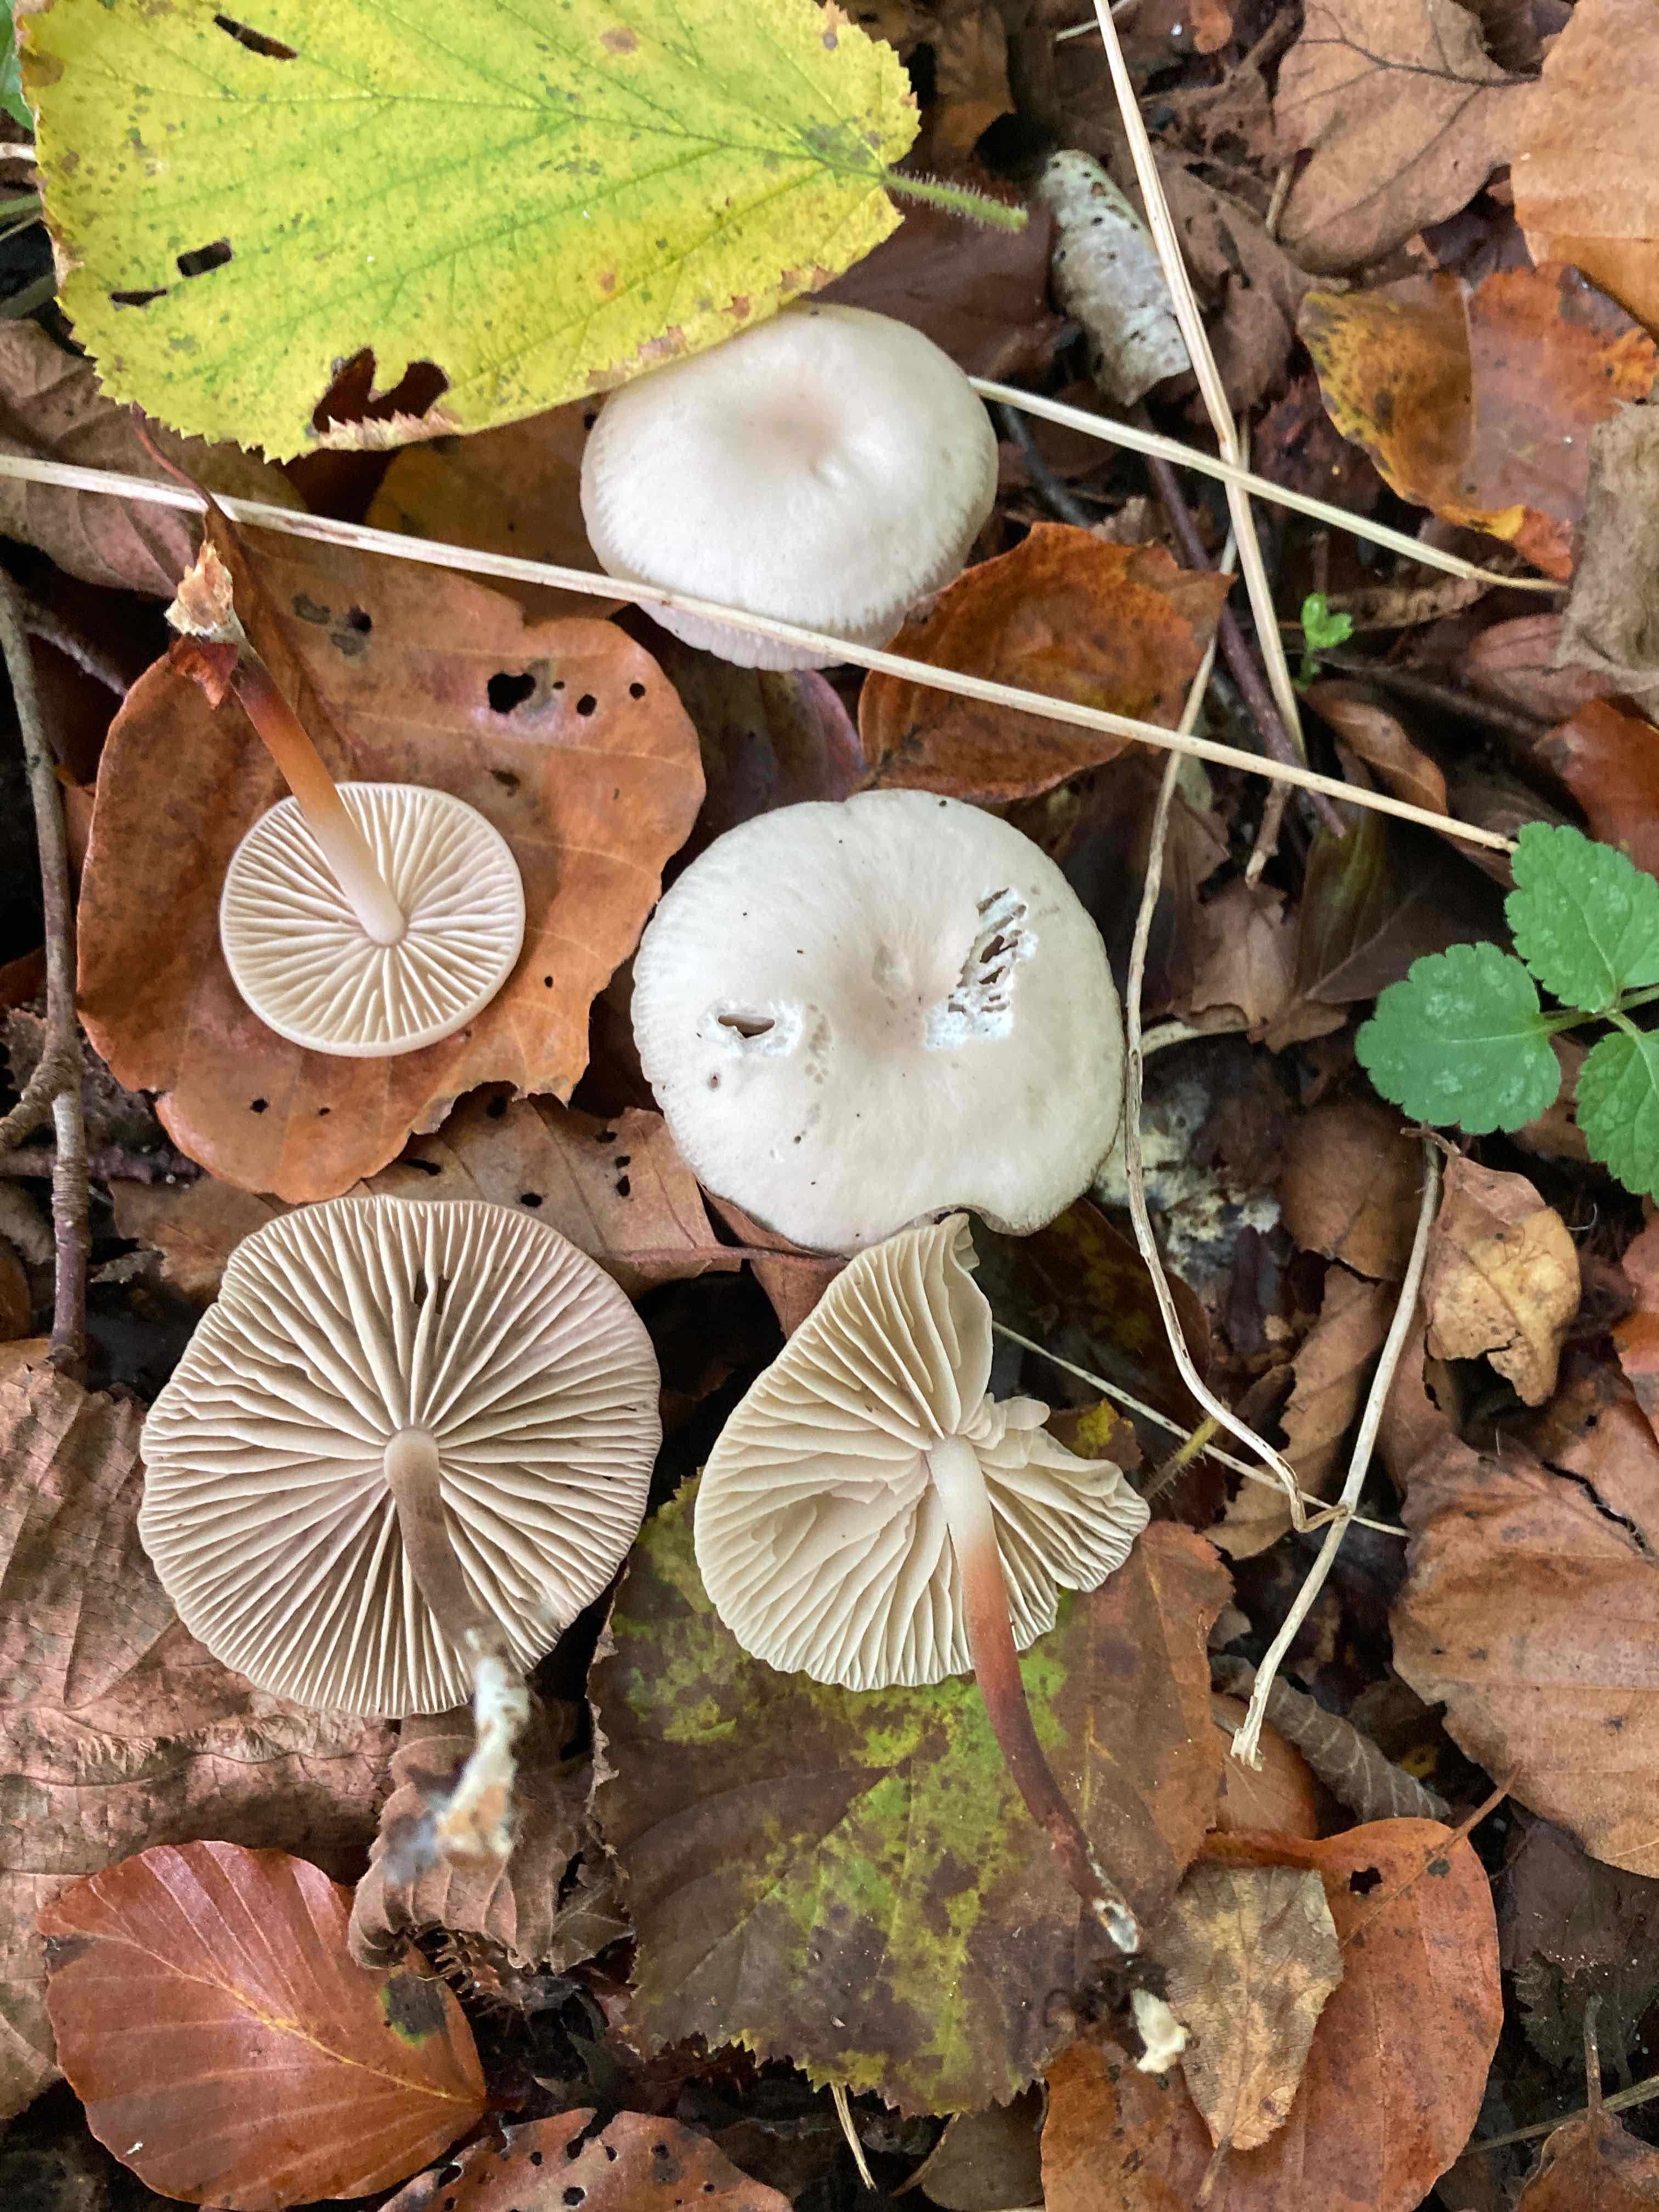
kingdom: Fungi
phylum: Basidiomycota
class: Agaricomycetes
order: Agaricales
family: Marasmiaceae
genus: Marasmius
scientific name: Marasmius wynneae
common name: hvælvet bruskhat
